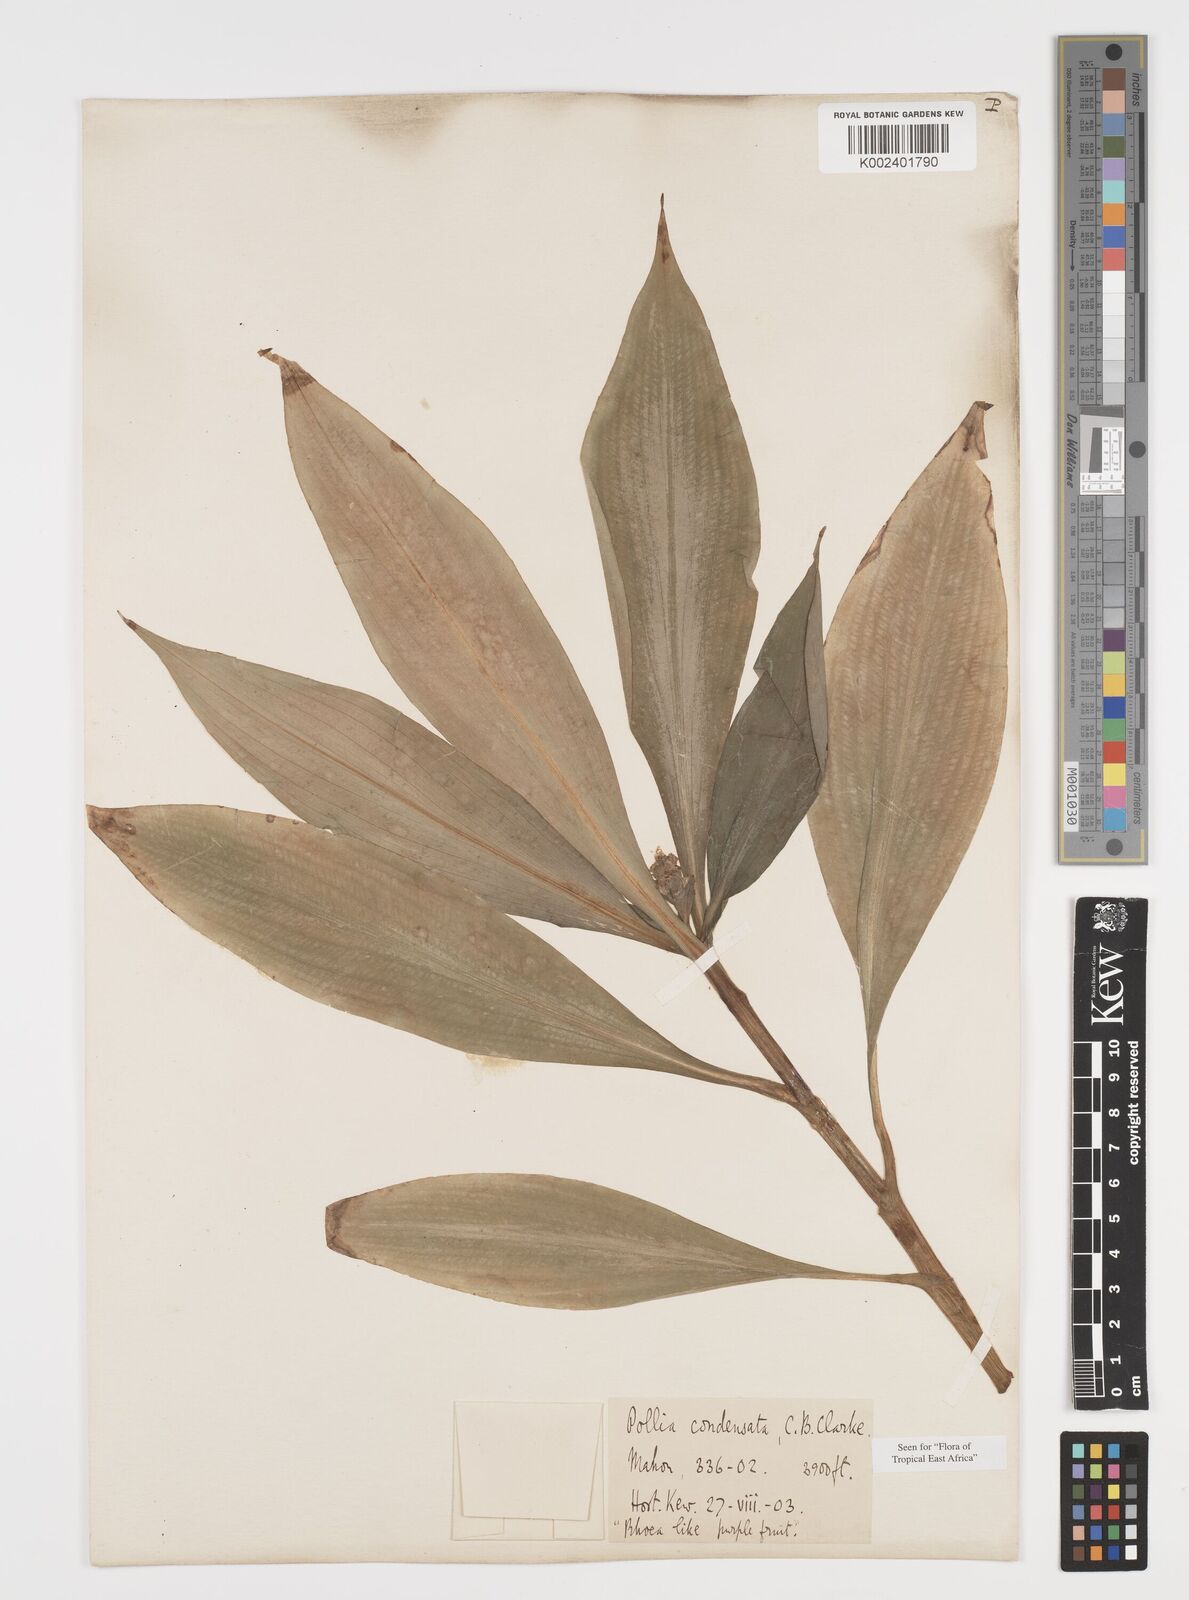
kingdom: Plantae
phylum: Tracheophyta
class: Liliopsida
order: Commelinales
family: Commelinaceae
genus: Pollia
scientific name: Pollia condensata
